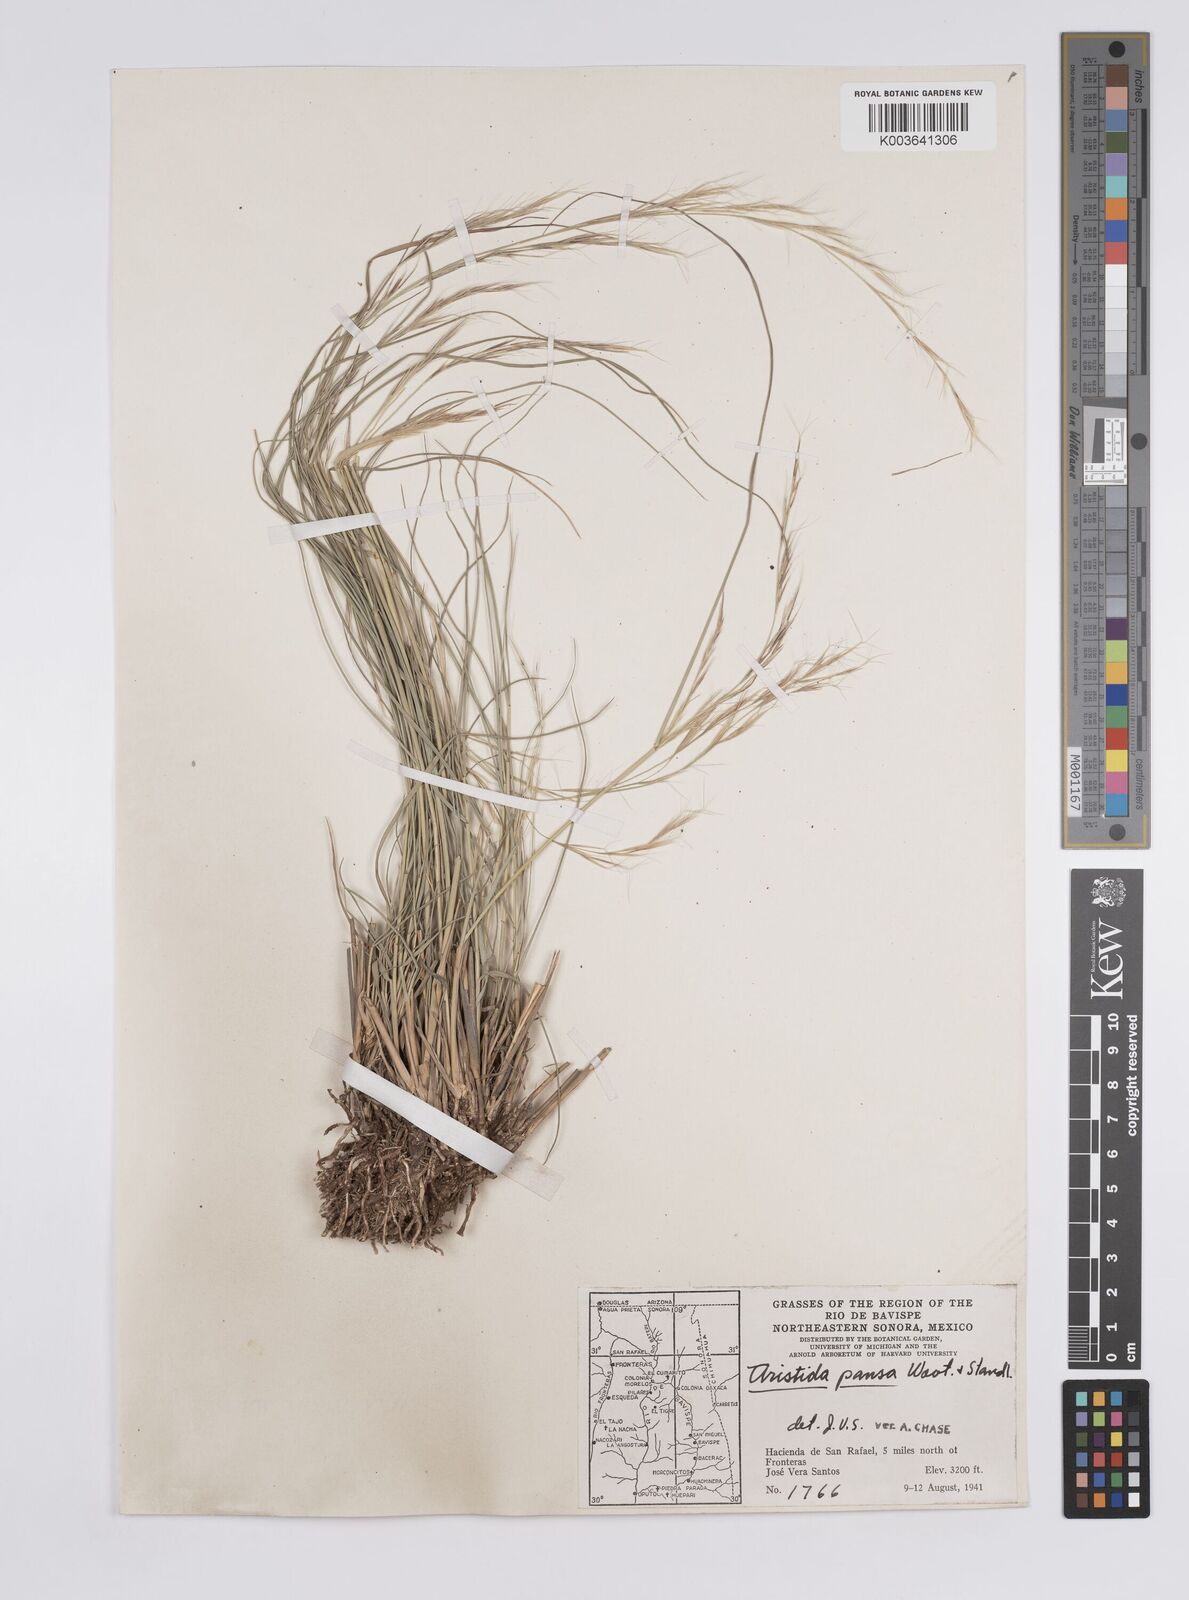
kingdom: Plantae
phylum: Tracheophyta
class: Liliopsida
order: Poales
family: Poaceae
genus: Aristida
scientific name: Aristida pansa
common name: Wooton's three-awn
